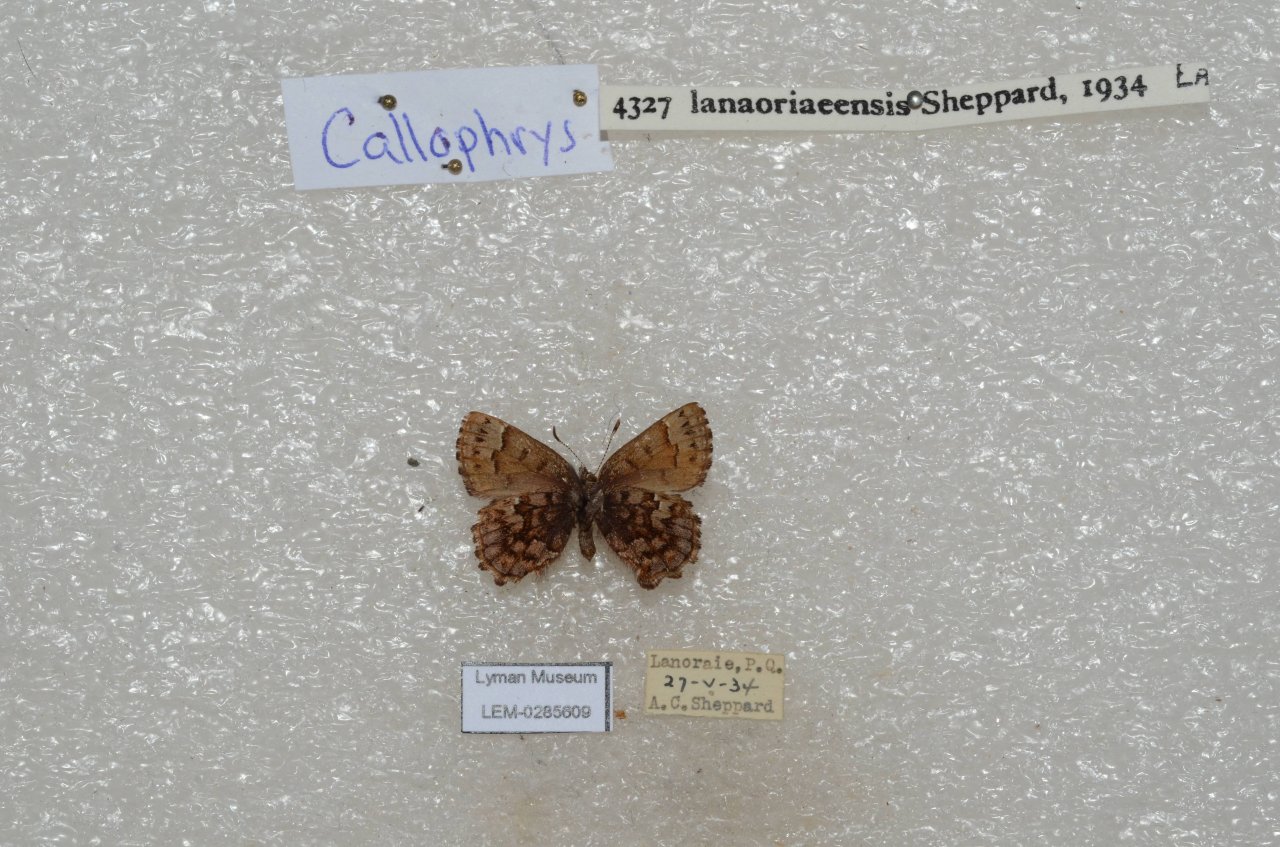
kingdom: Animalia
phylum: Arthropoda
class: Insecta
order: Lepidoptera
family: Lycaenidae
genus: Incisalia
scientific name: Incisalia lanoraieensis
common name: Bog Elfin
